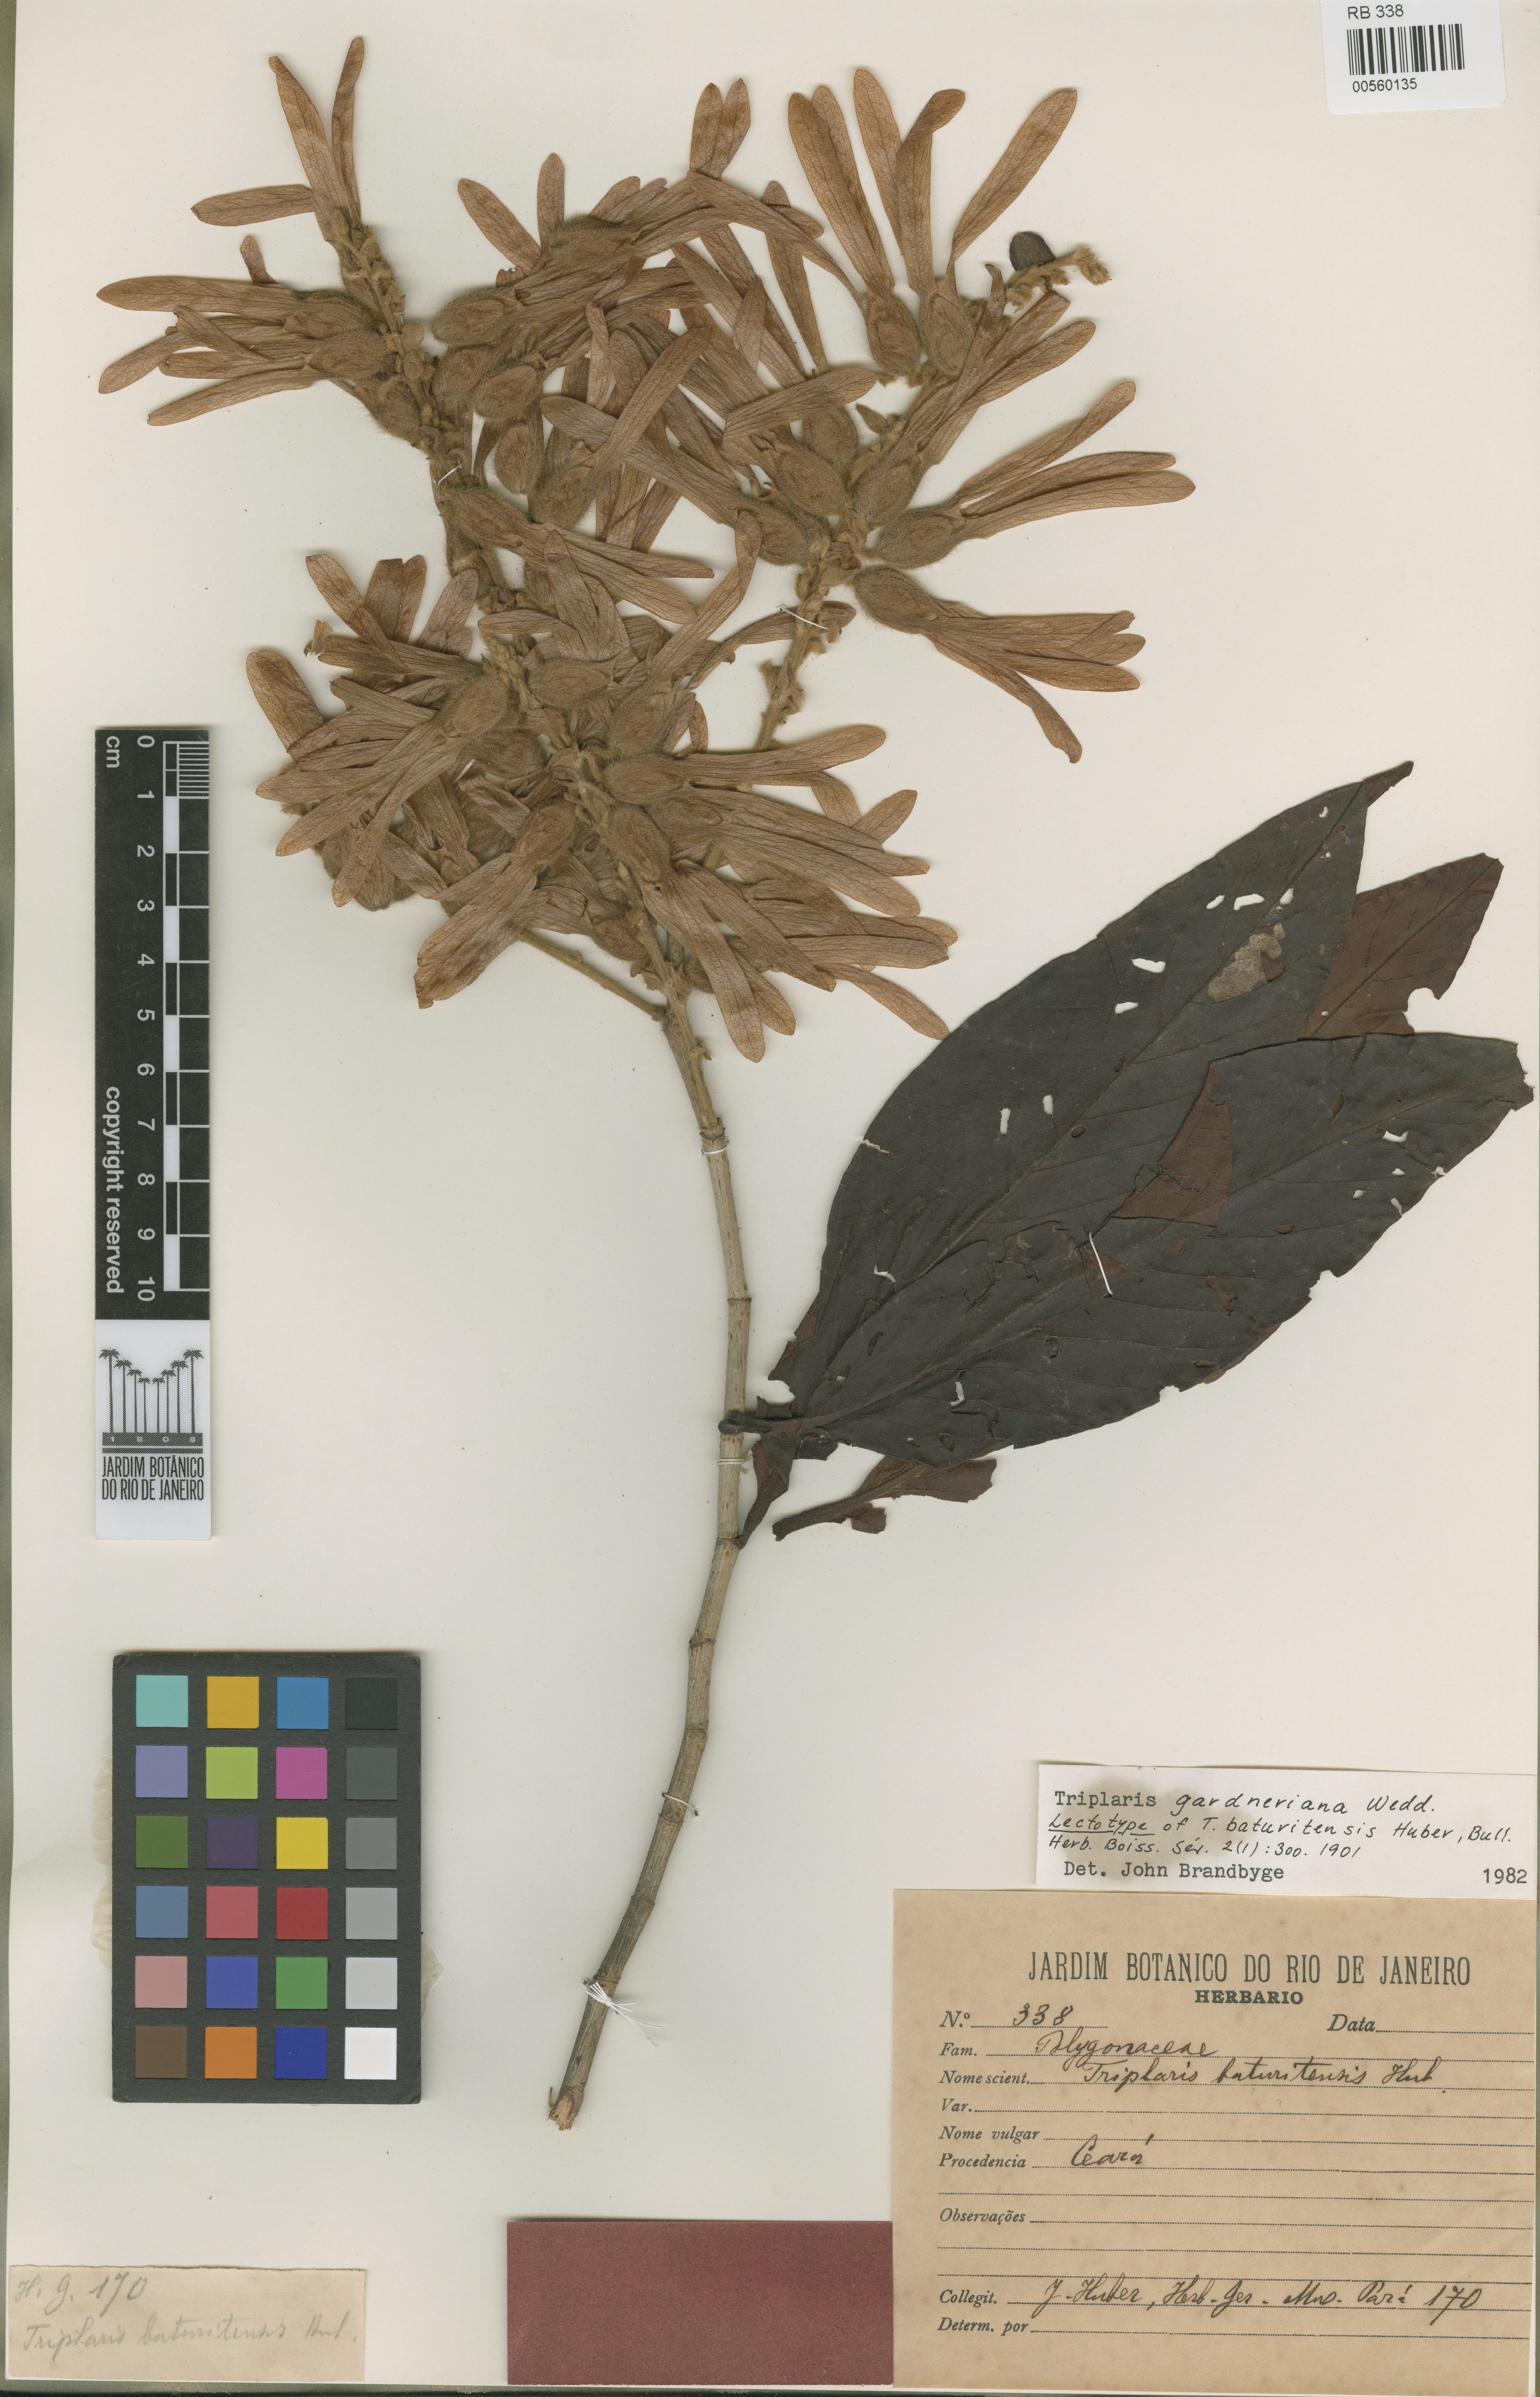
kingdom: Plantae
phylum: Tracheophyta
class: Magnoliopsida
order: Caryophyllales
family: Polygonaceae
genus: Triplaris
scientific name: Triplaris gardneriana
